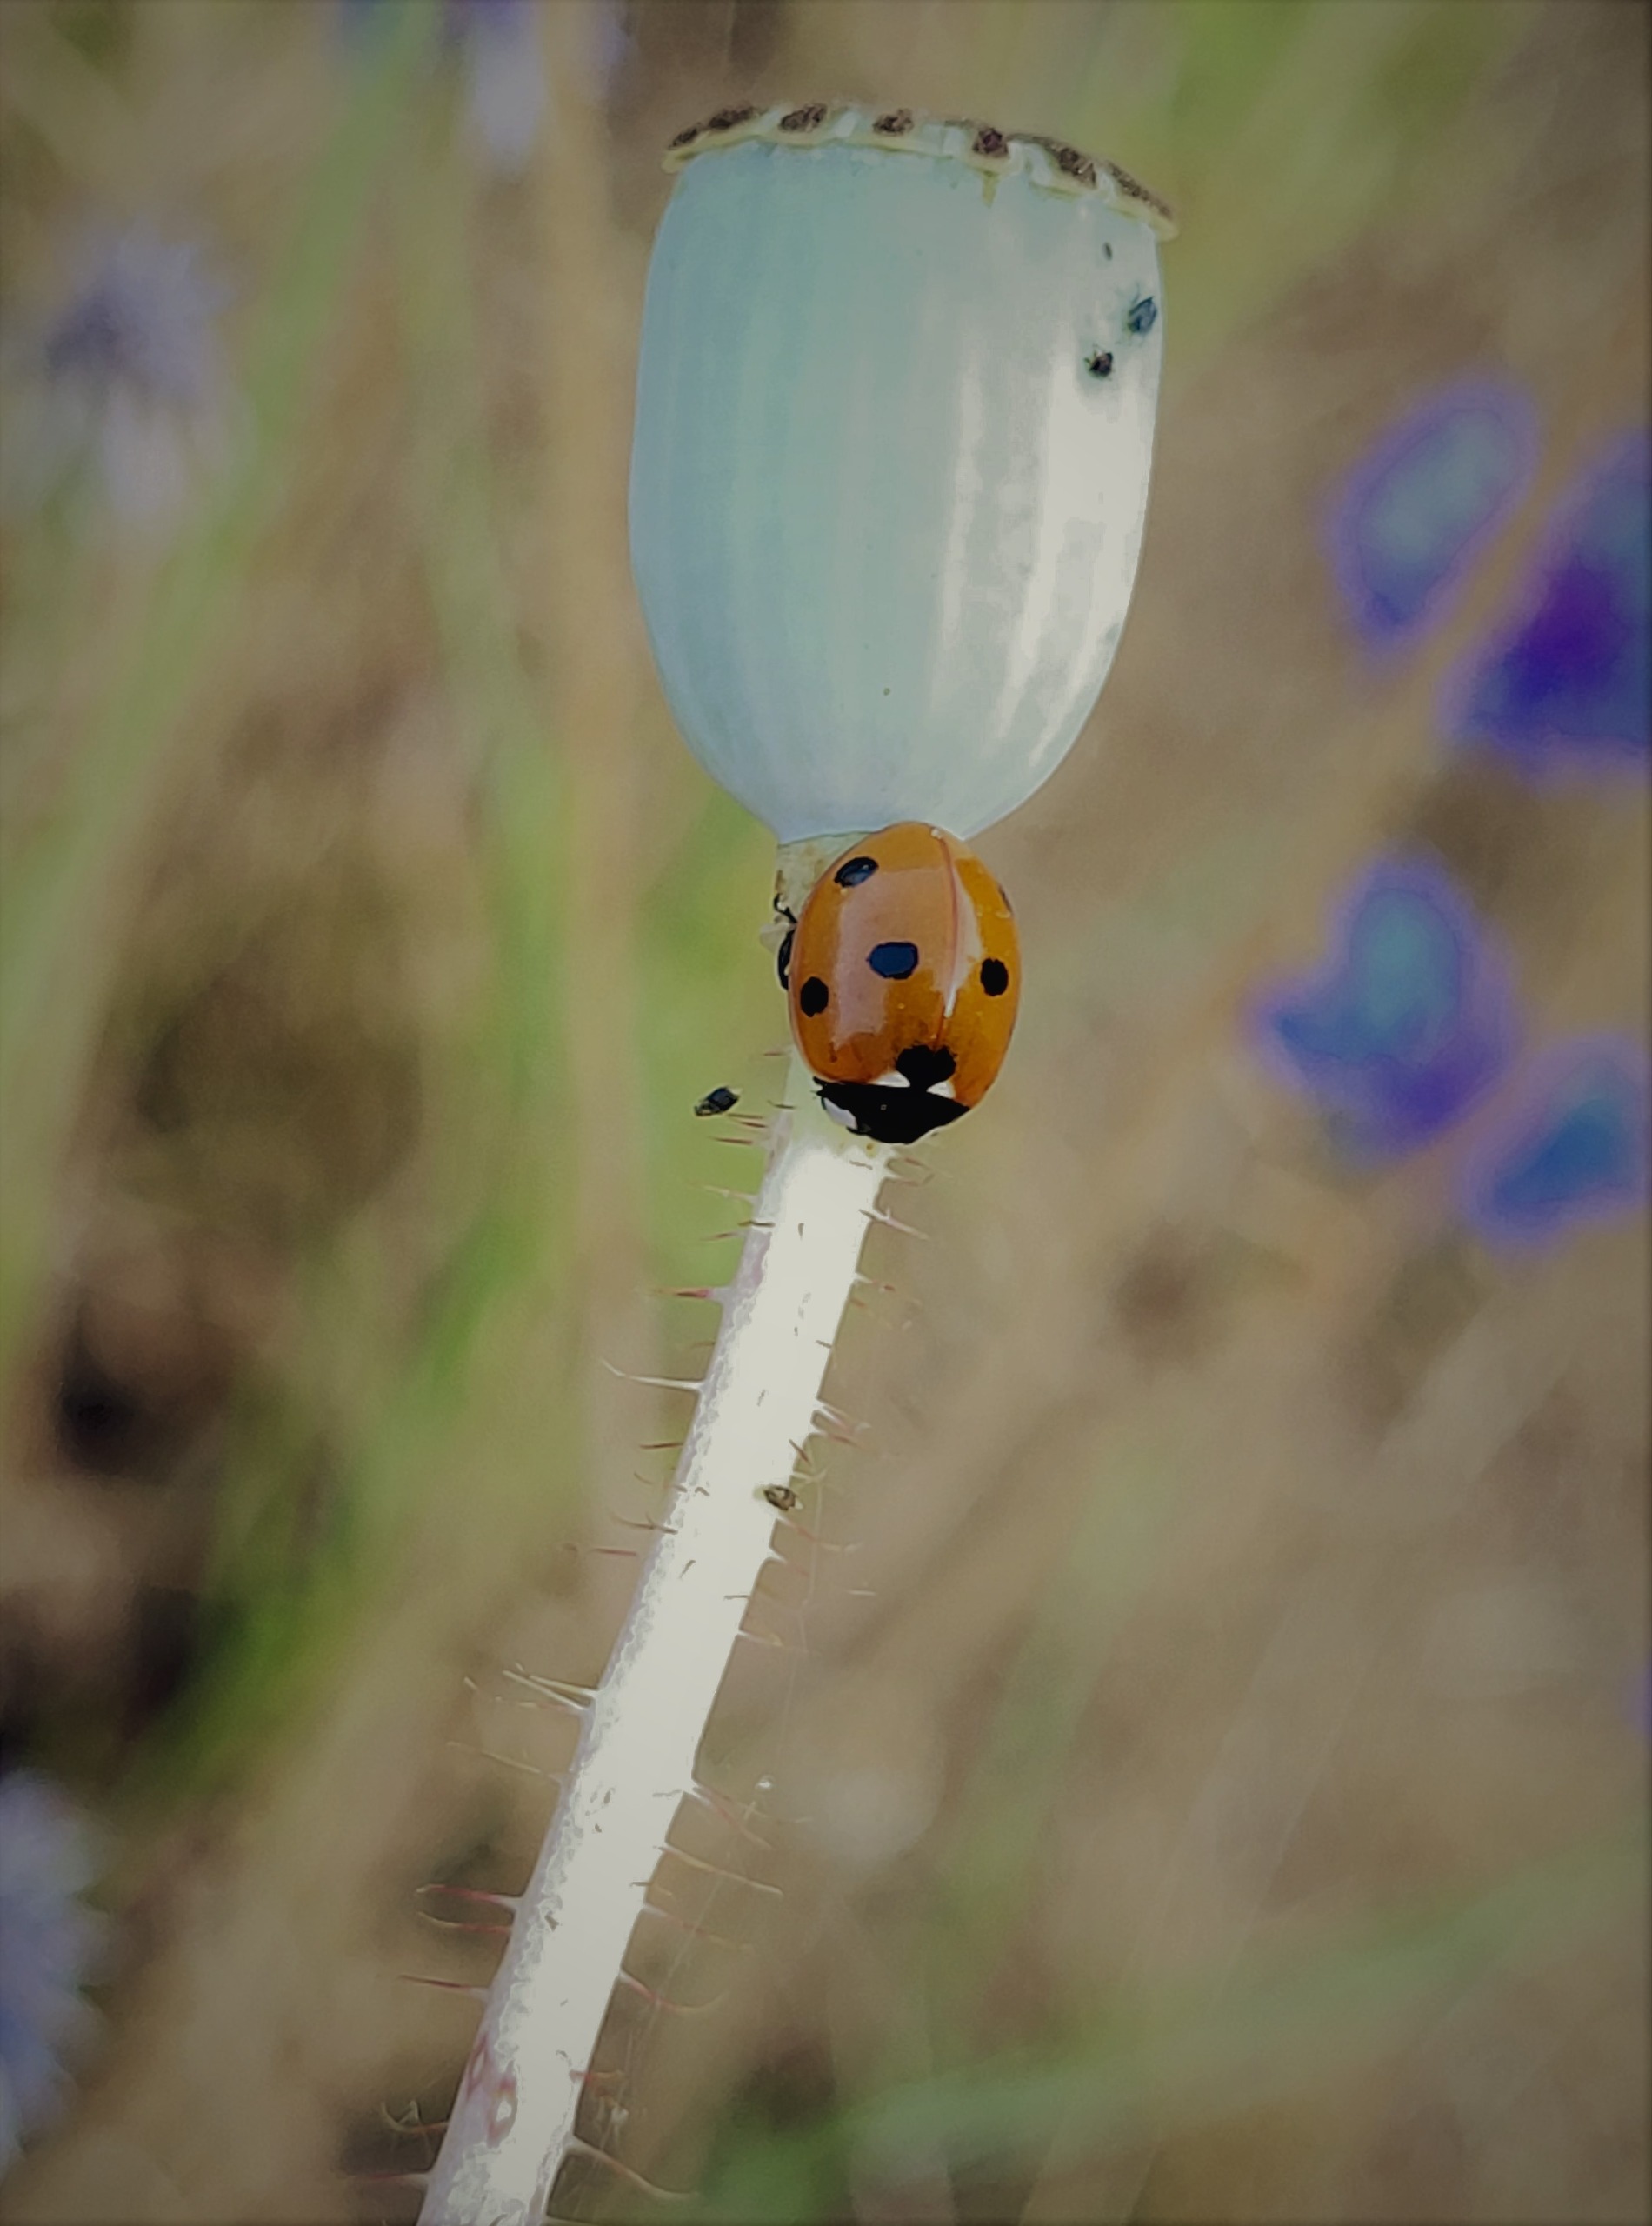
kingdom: Animalia
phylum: Arthropoda
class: Insecta
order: Coleoptera
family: Coccinellidae
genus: Coccinella
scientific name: Coccinella septempunctata
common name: Syvplettet mariehøne
